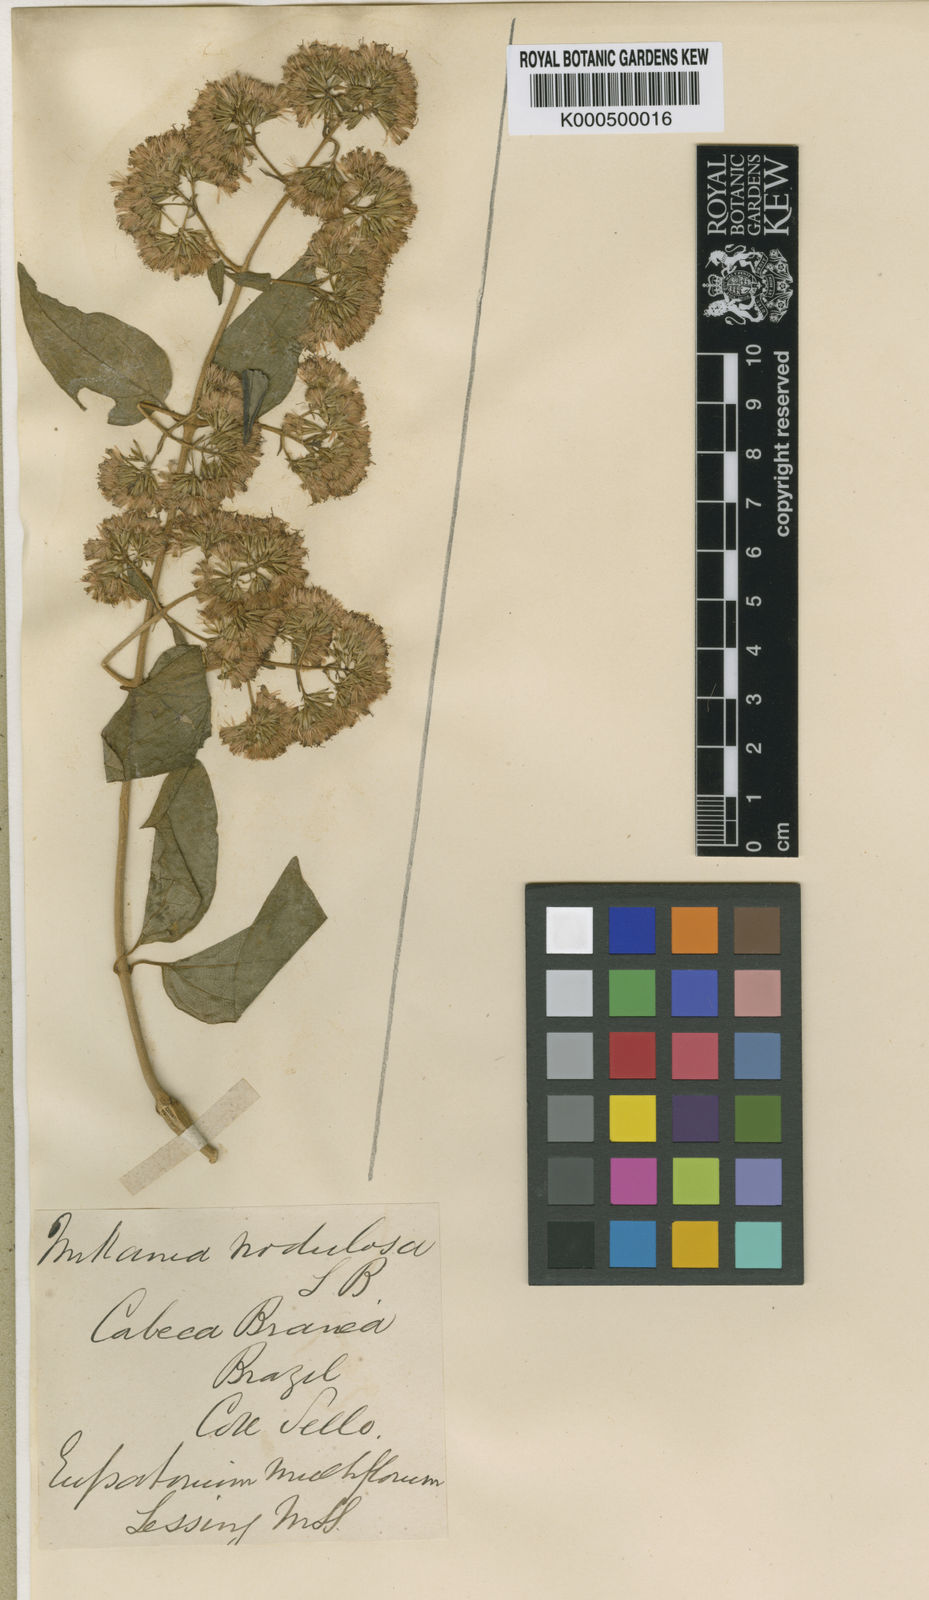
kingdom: Plantae
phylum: Tracheophyta
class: Magnoliopsida
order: Asterales
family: Asteraceae
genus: Mikania
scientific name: Mikania nodulosa
